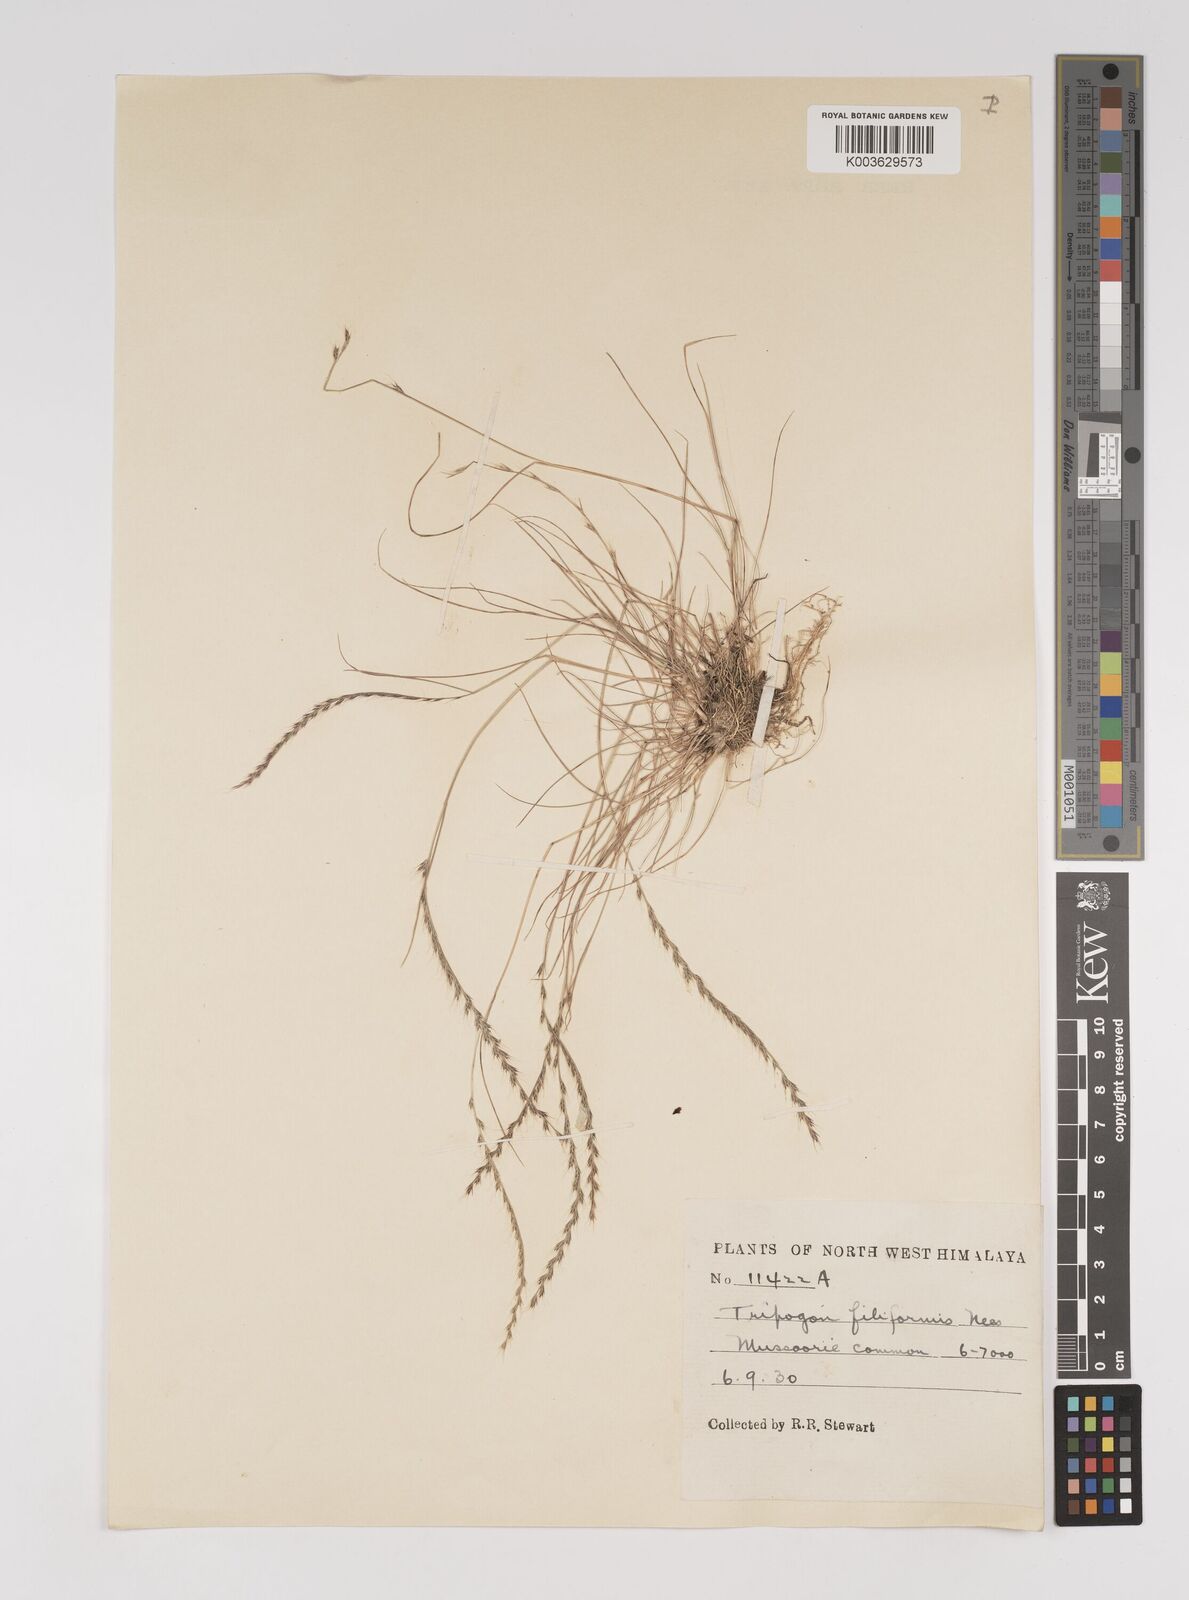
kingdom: Plantae
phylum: Tracheophyta
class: Liliopsida
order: Poales
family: Poaceae
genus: Tripogon
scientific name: Tripogon filiformis
